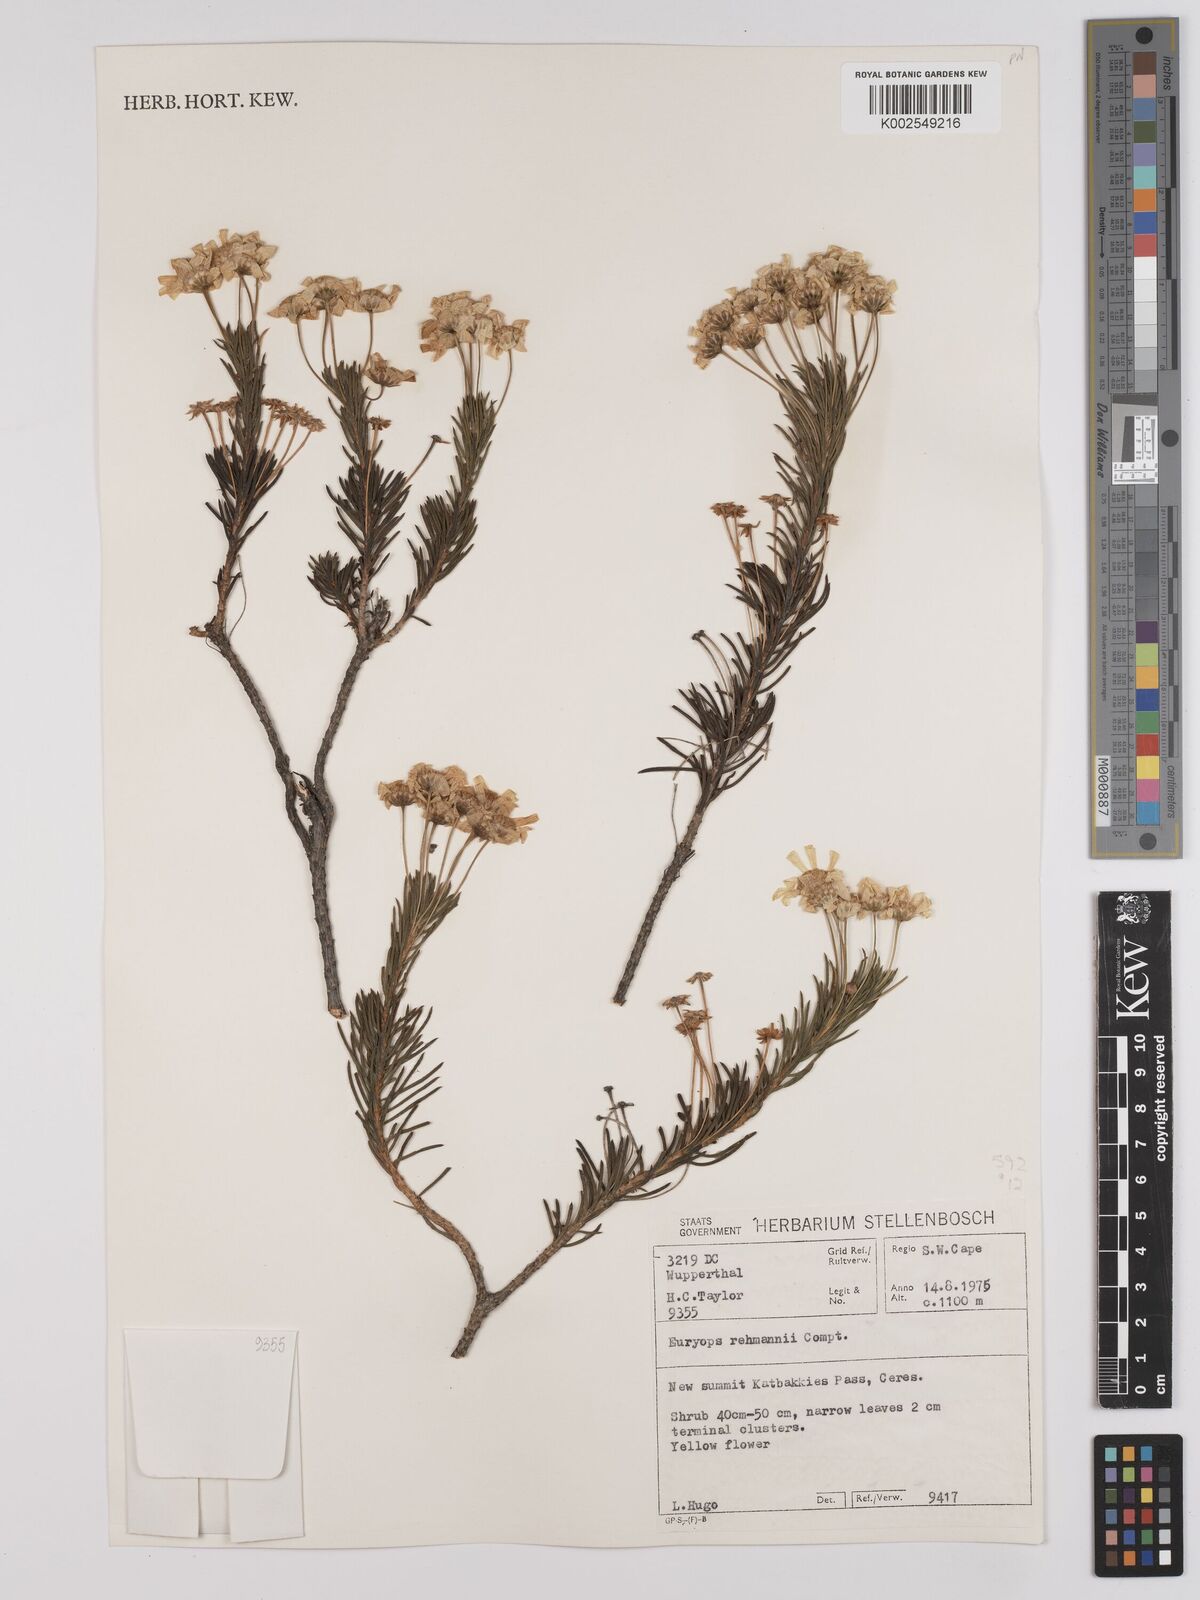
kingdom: Plantae
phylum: Tracheophyta
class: Magnoliopsida
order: Asterales
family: Asteraceae
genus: Euryops
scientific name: Euryops rehmannii
